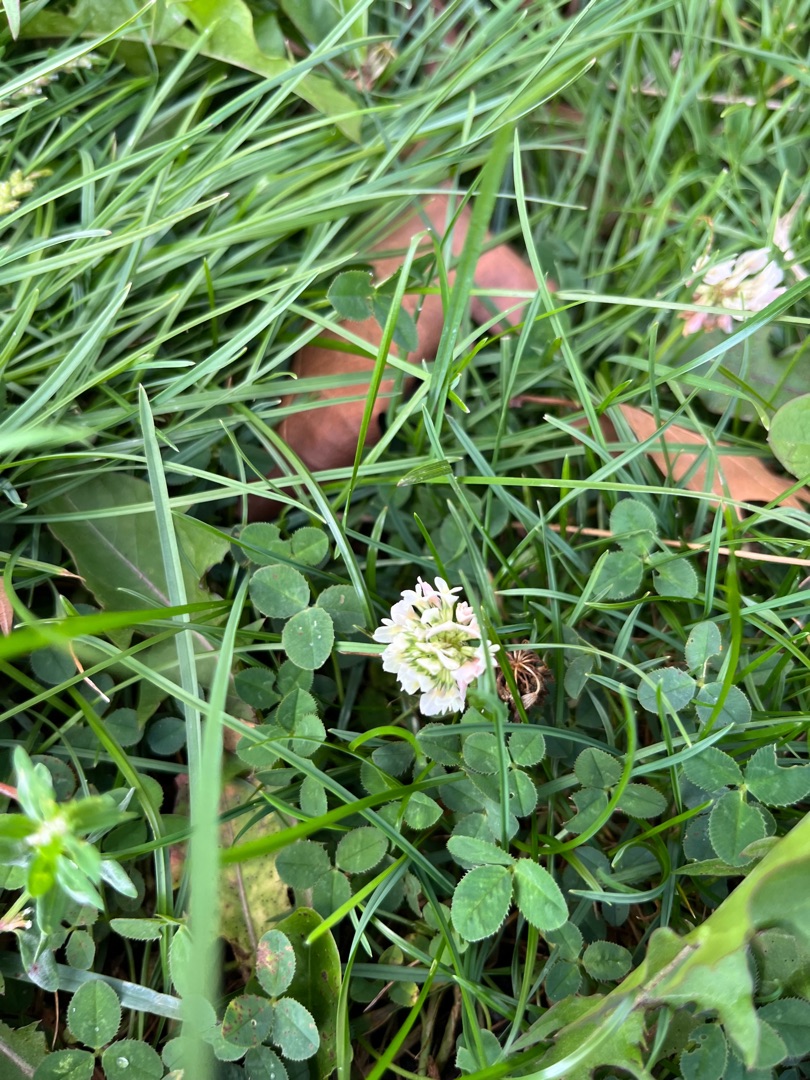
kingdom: Plantae
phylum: Tracheophyta
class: Magnoliopsida
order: Fabales
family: Fabaceae
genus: Trifolium
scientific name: Trifolium repens
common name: Hvid-kløver
